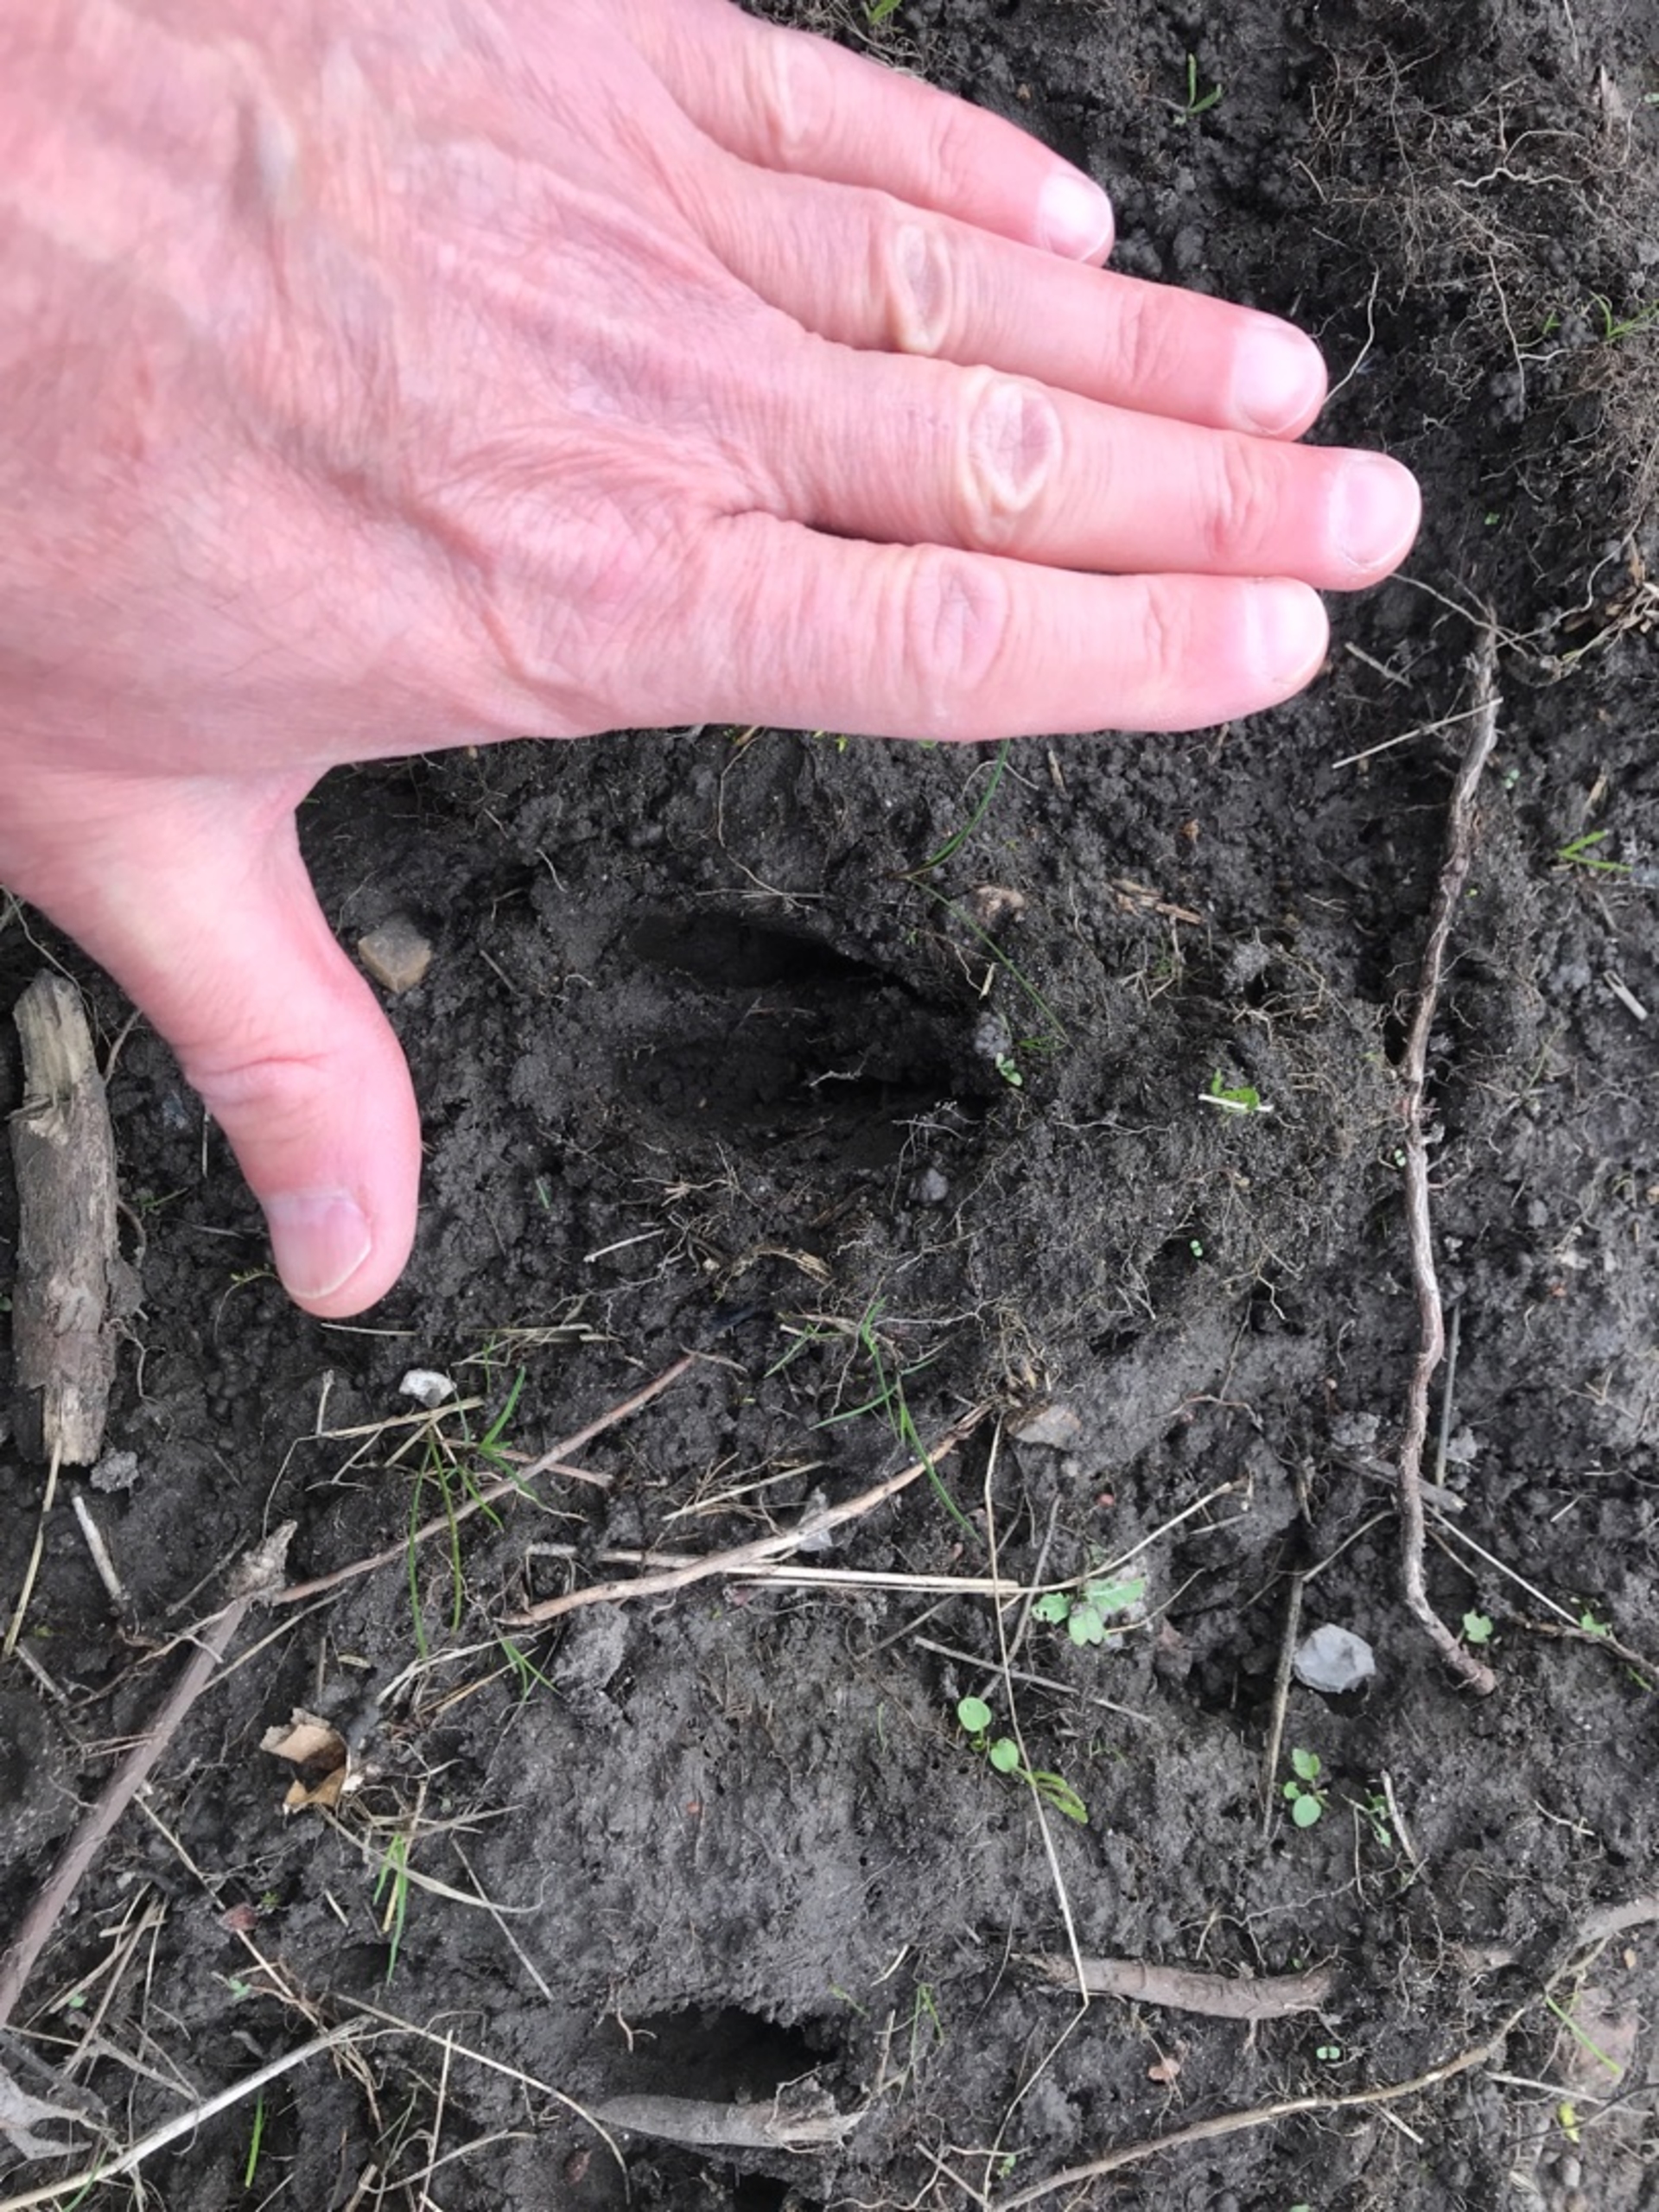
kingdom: Animalia
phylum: Chordata
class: Mammalia
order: Artiodactyla
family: Cervidae
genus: Capreolus
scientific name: Capreolus capreolus
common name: Rådyr
